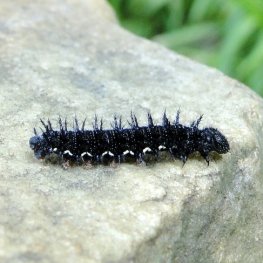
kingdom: Animalia
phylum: Arthropoda
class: Insecta
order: Lepidoptera
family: Nymphalidae
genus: Vanessa
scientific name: Vanessa atalanta
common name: Red Admiral
